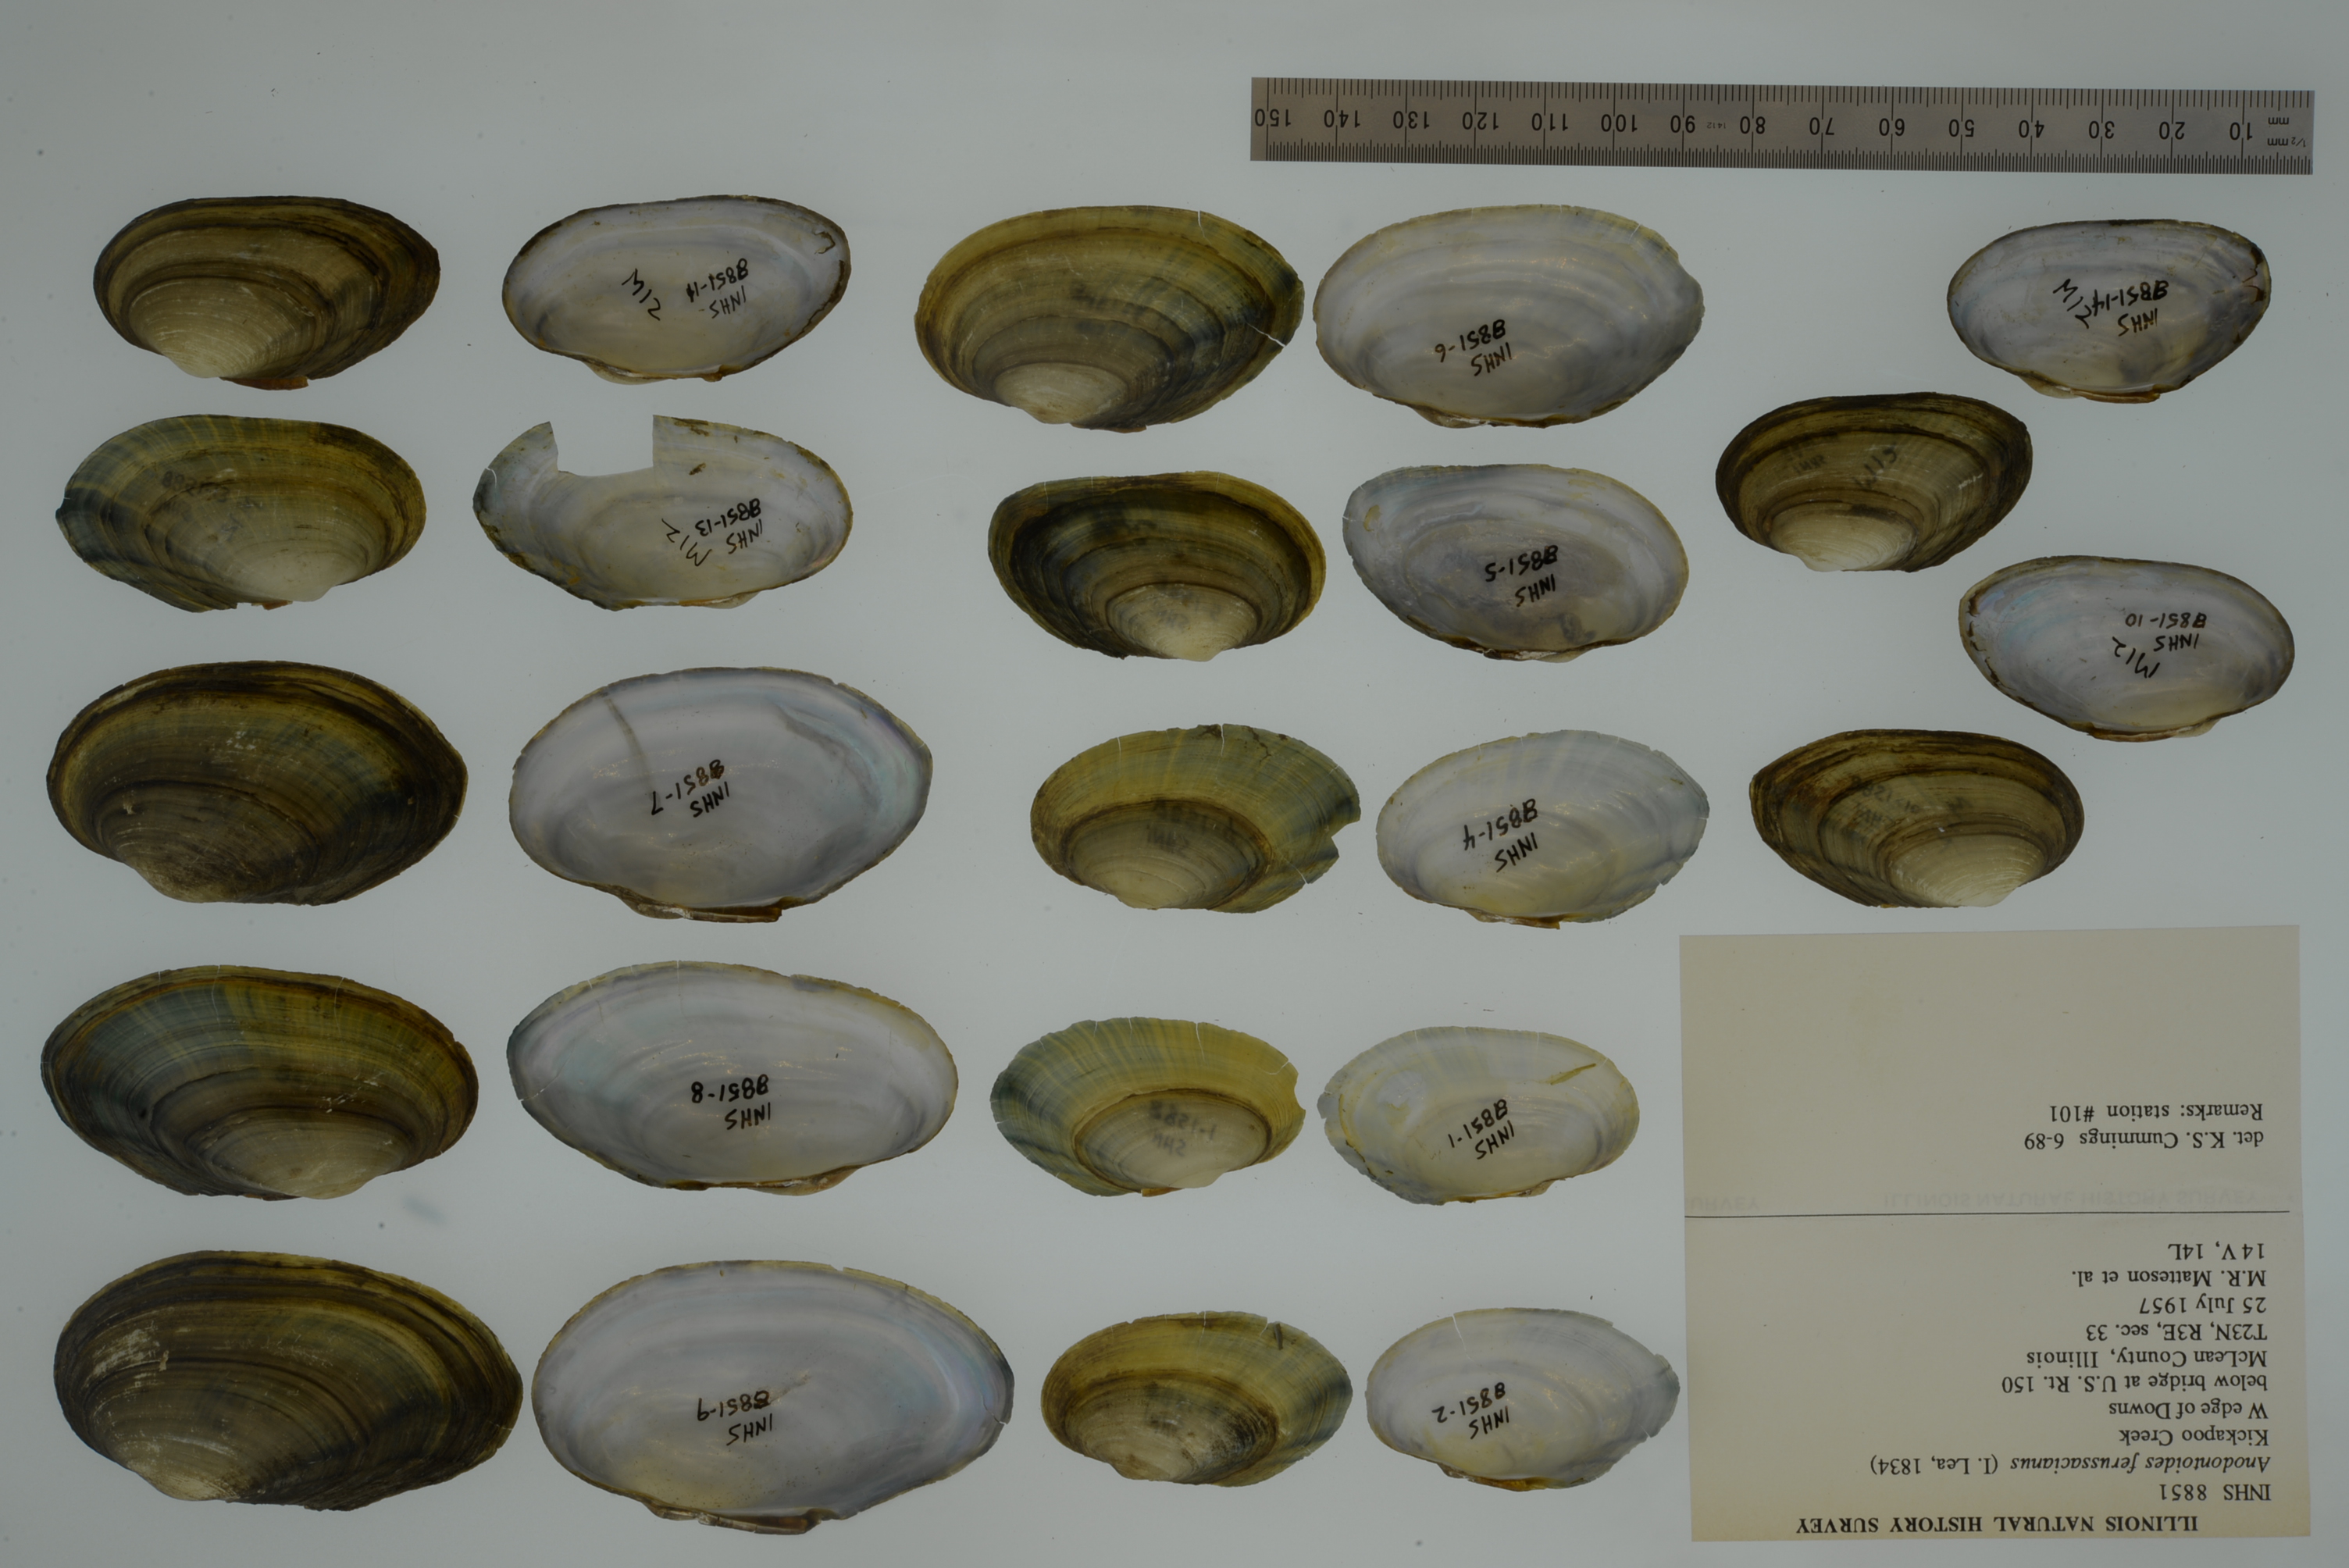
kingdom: Animalia
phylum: Mollusca
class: Bivalvia
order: Unionida
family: Unionidae
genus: Anodontoides
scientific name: Anodontoides ferussacianus
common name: Cylindrical papershell
